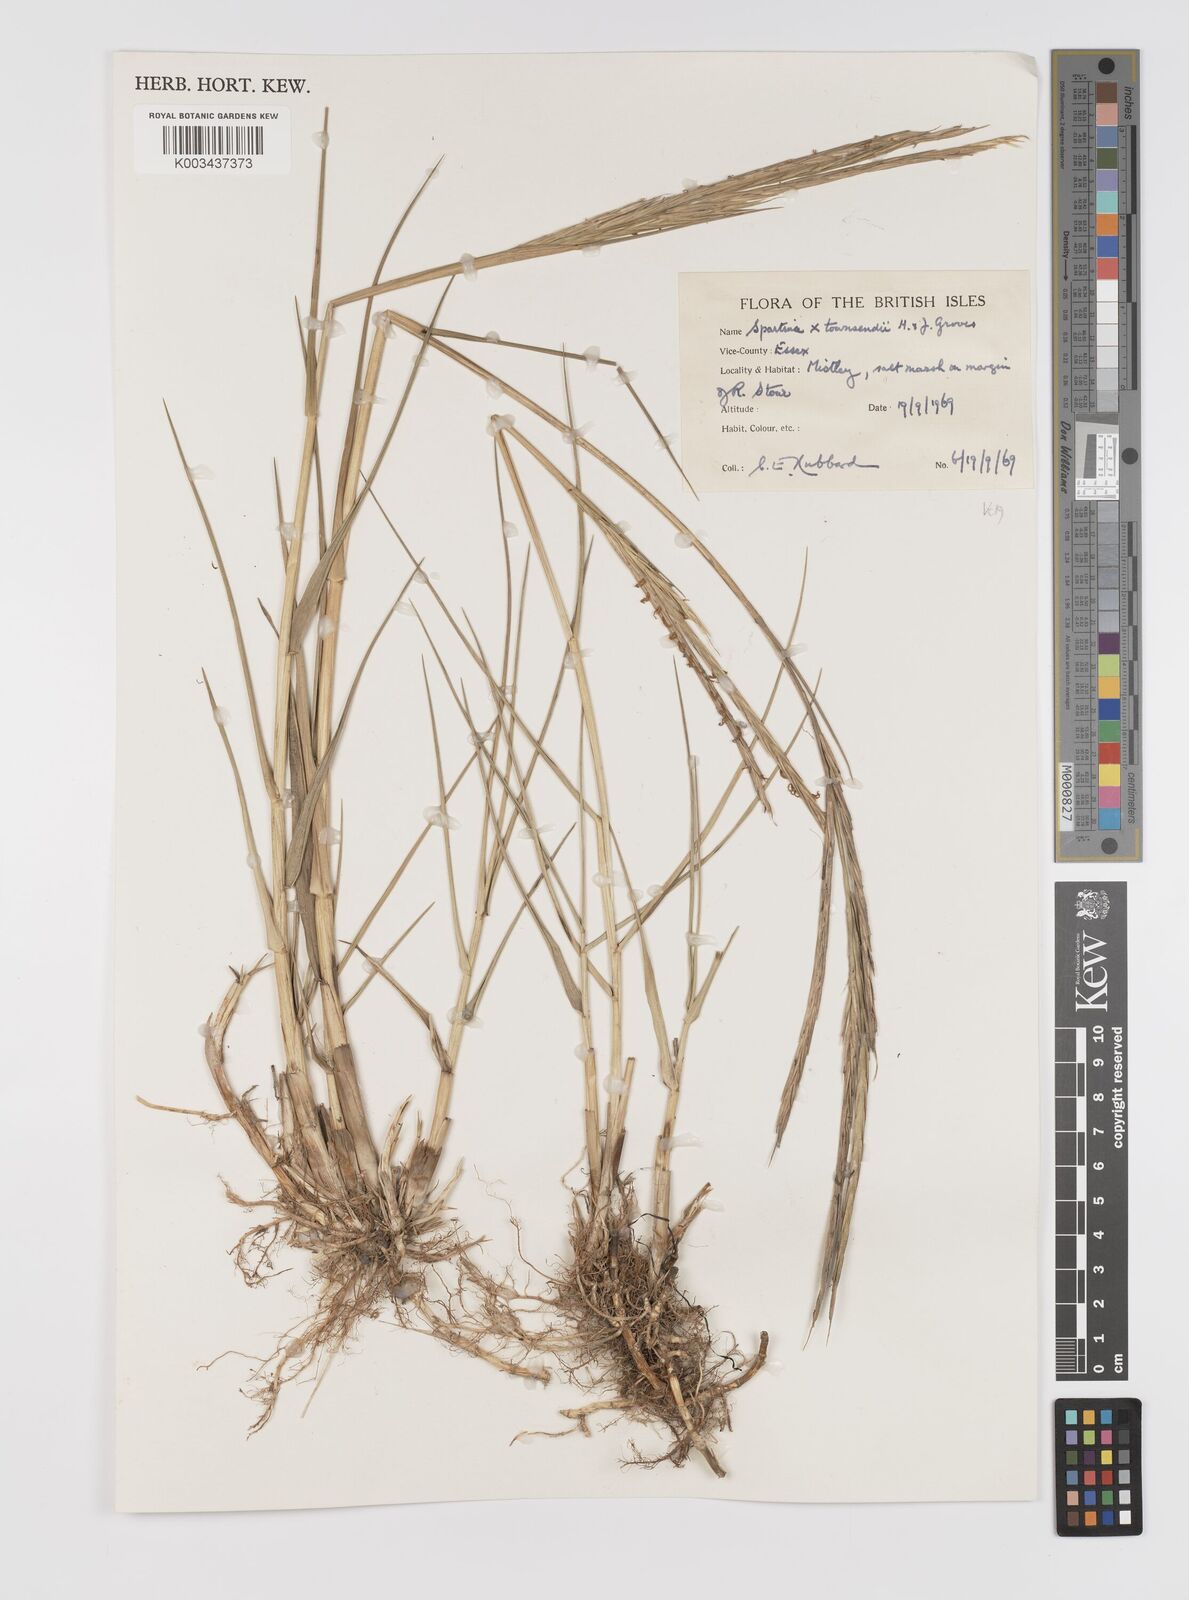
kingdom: Plantae
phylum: Tracheophyta
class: Liliopsida
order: Poales
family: Poaceae
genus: Sporobolus
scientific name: Sporobolus townsendii
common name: Townsend's cordgrass
